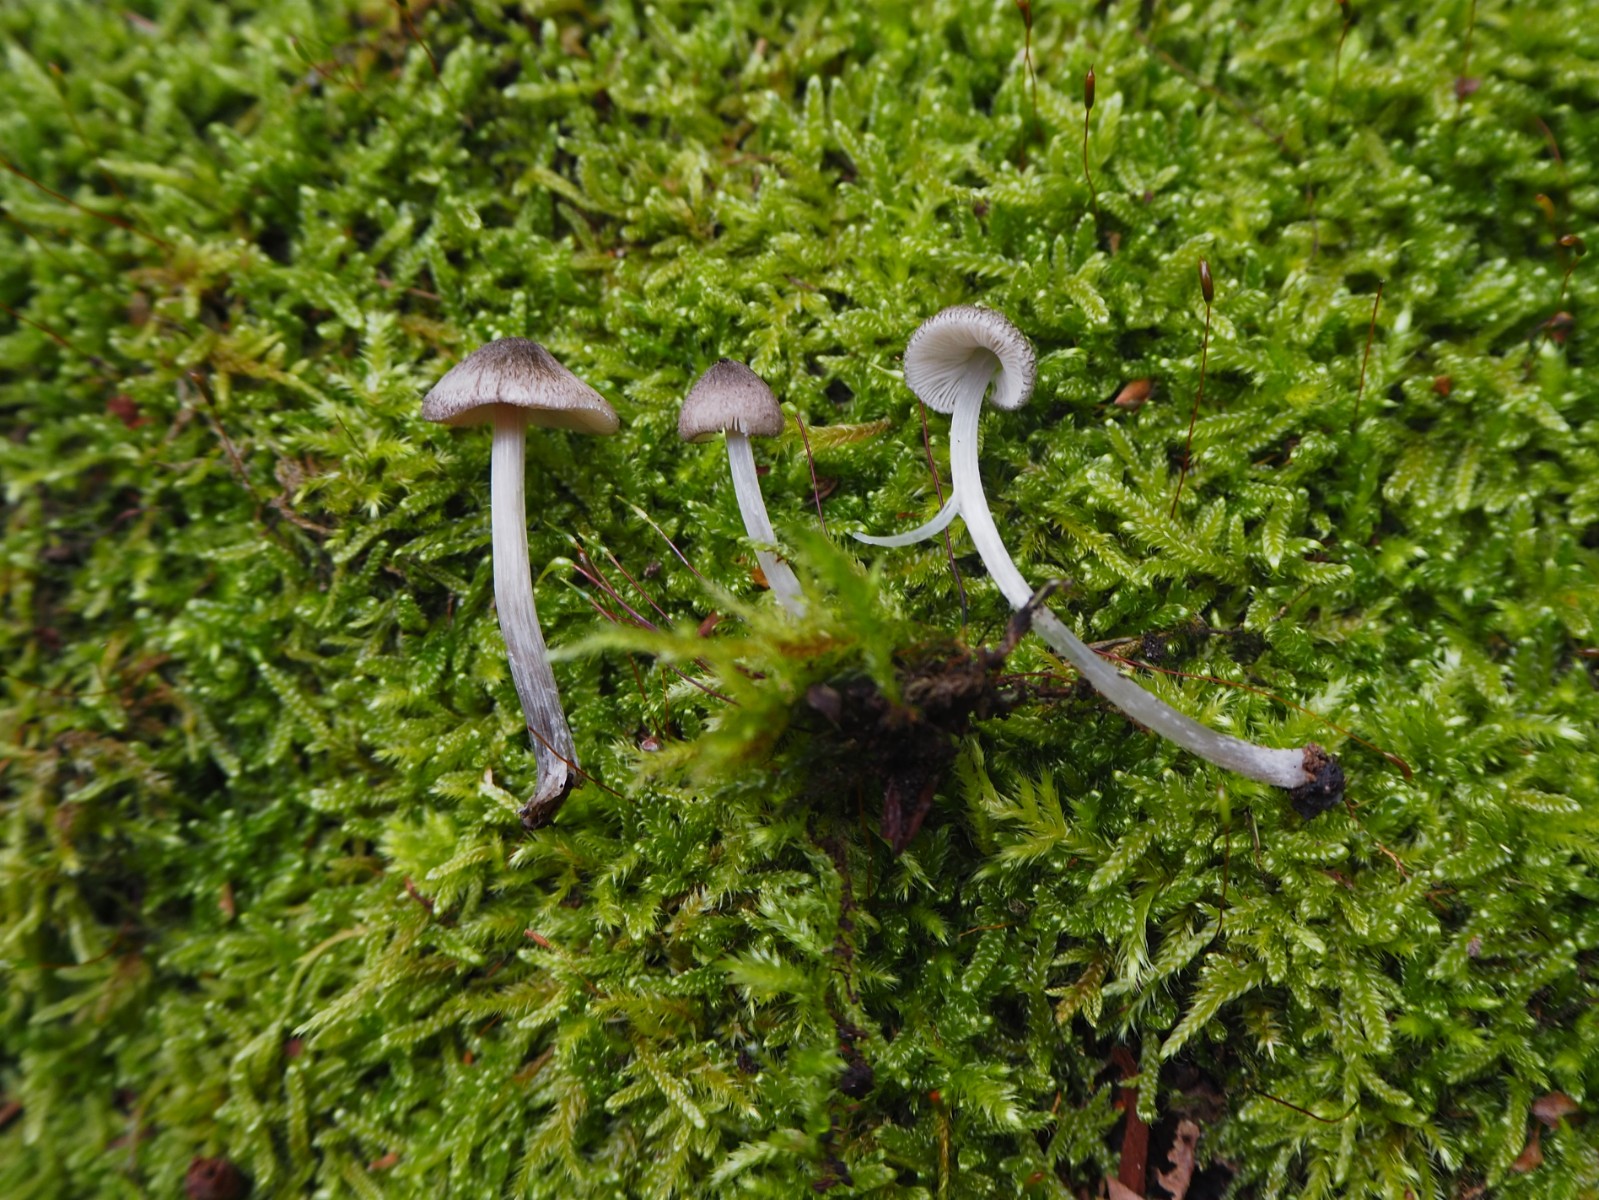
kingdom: Fungi
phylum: Basidiomycota
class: Agaricomycetes
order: Agaricales
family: Pluteaceae
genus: Pluteus
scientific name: Pluteus
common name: stivhåret skærmhat
